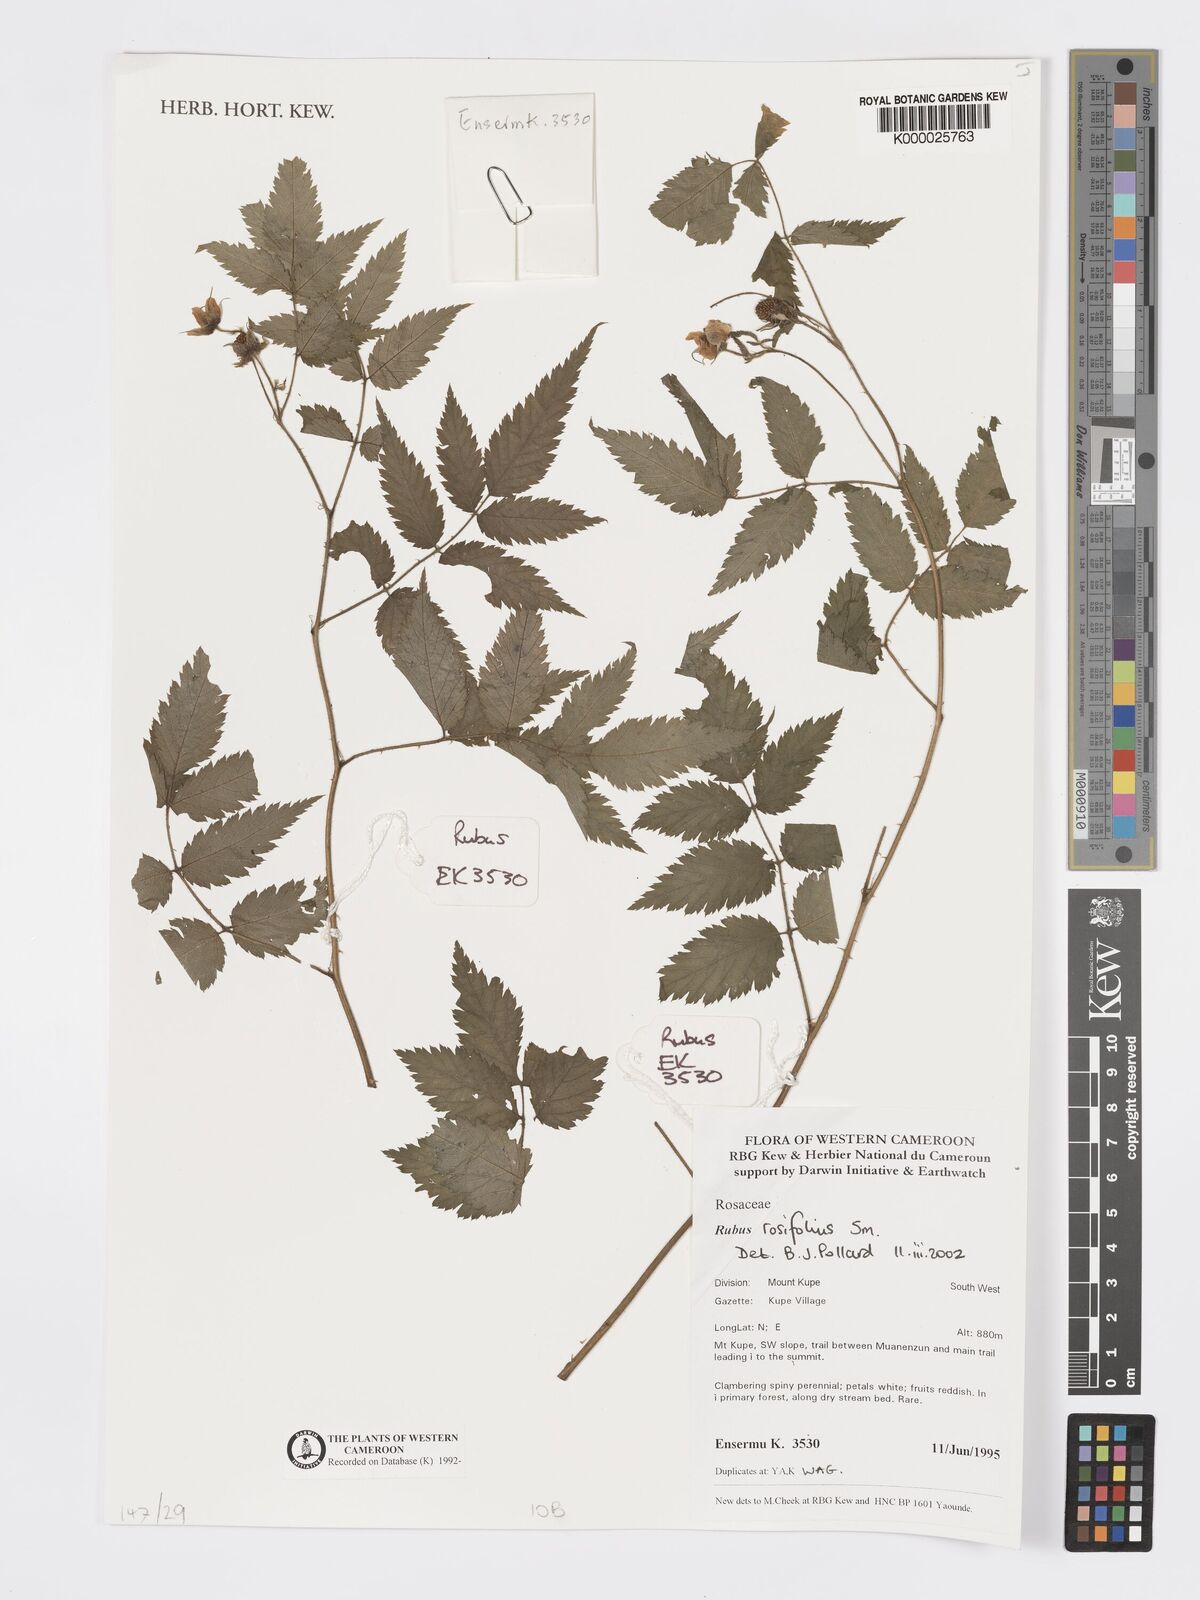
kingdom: Plantae
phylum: Tracheophyta
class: Magnoliopsida
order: Rosales
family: Rosaceae
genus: Rubus
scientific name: Rubus rosifolius
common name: Roseleaf raspberry
